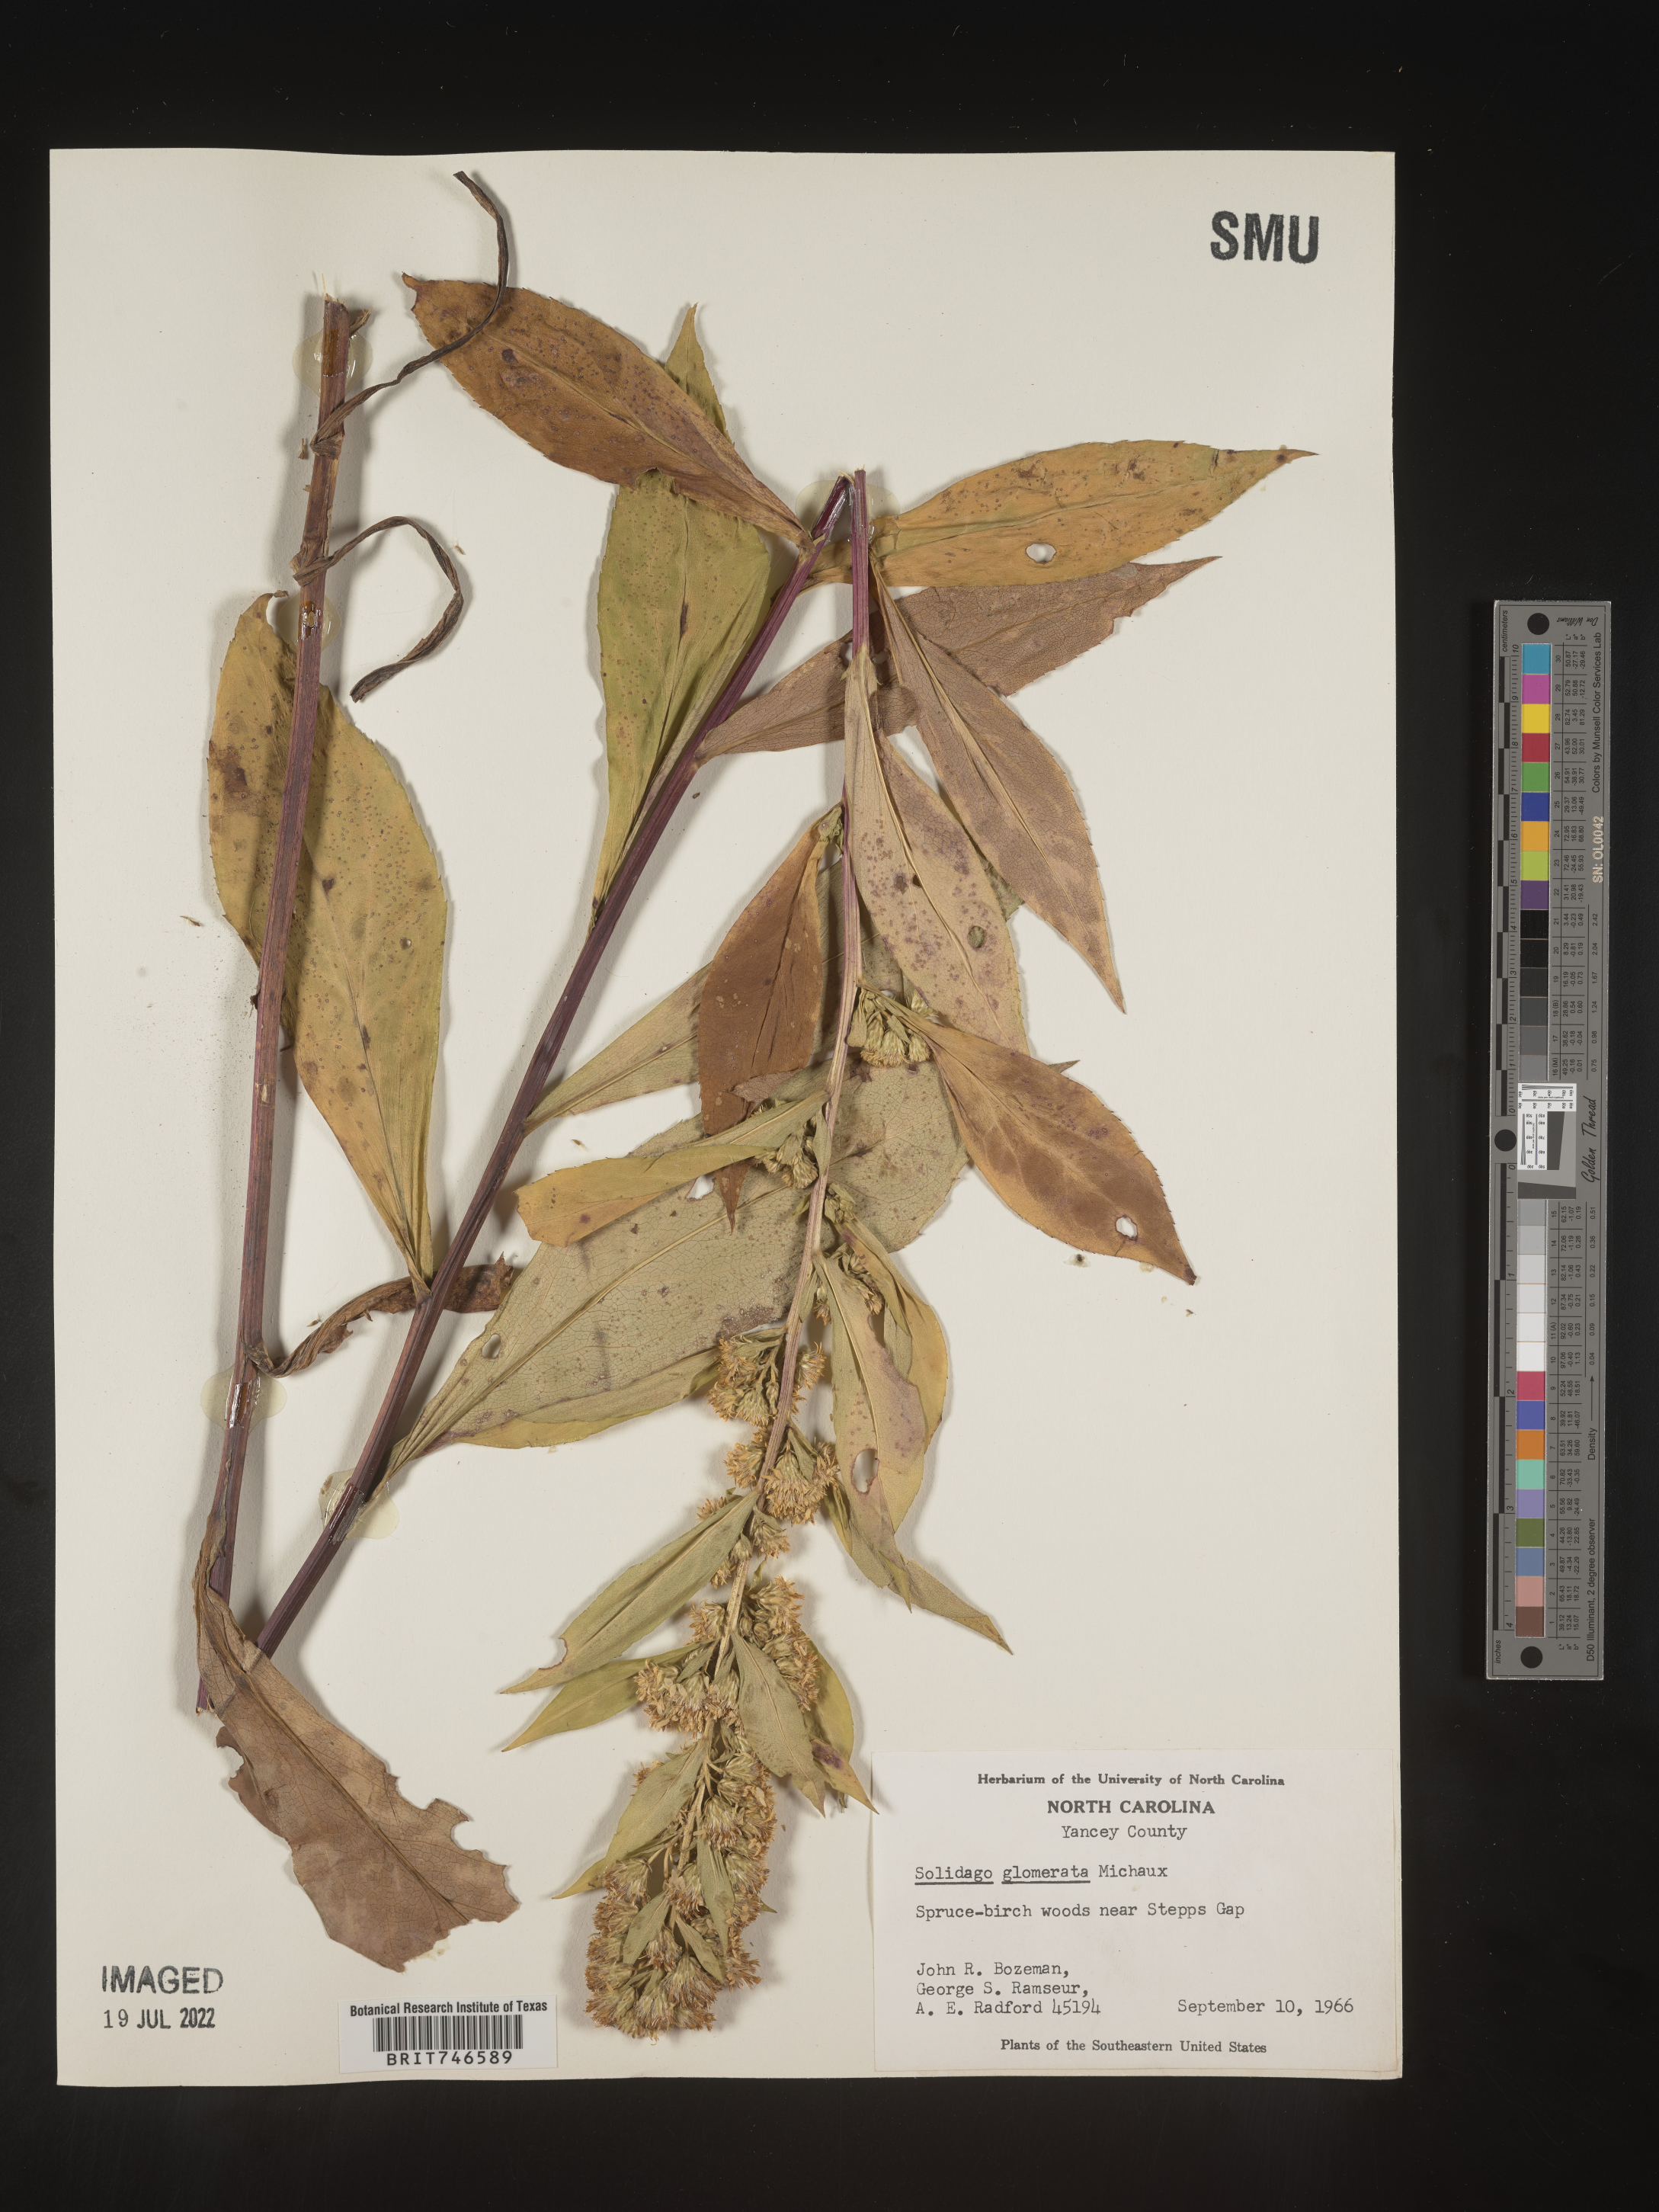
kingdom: Plantae
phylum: Tracheophyta
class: Magnoliopsida
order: Asterales
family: Asteraceae
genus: Solidago
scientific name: Solidago glomerata
